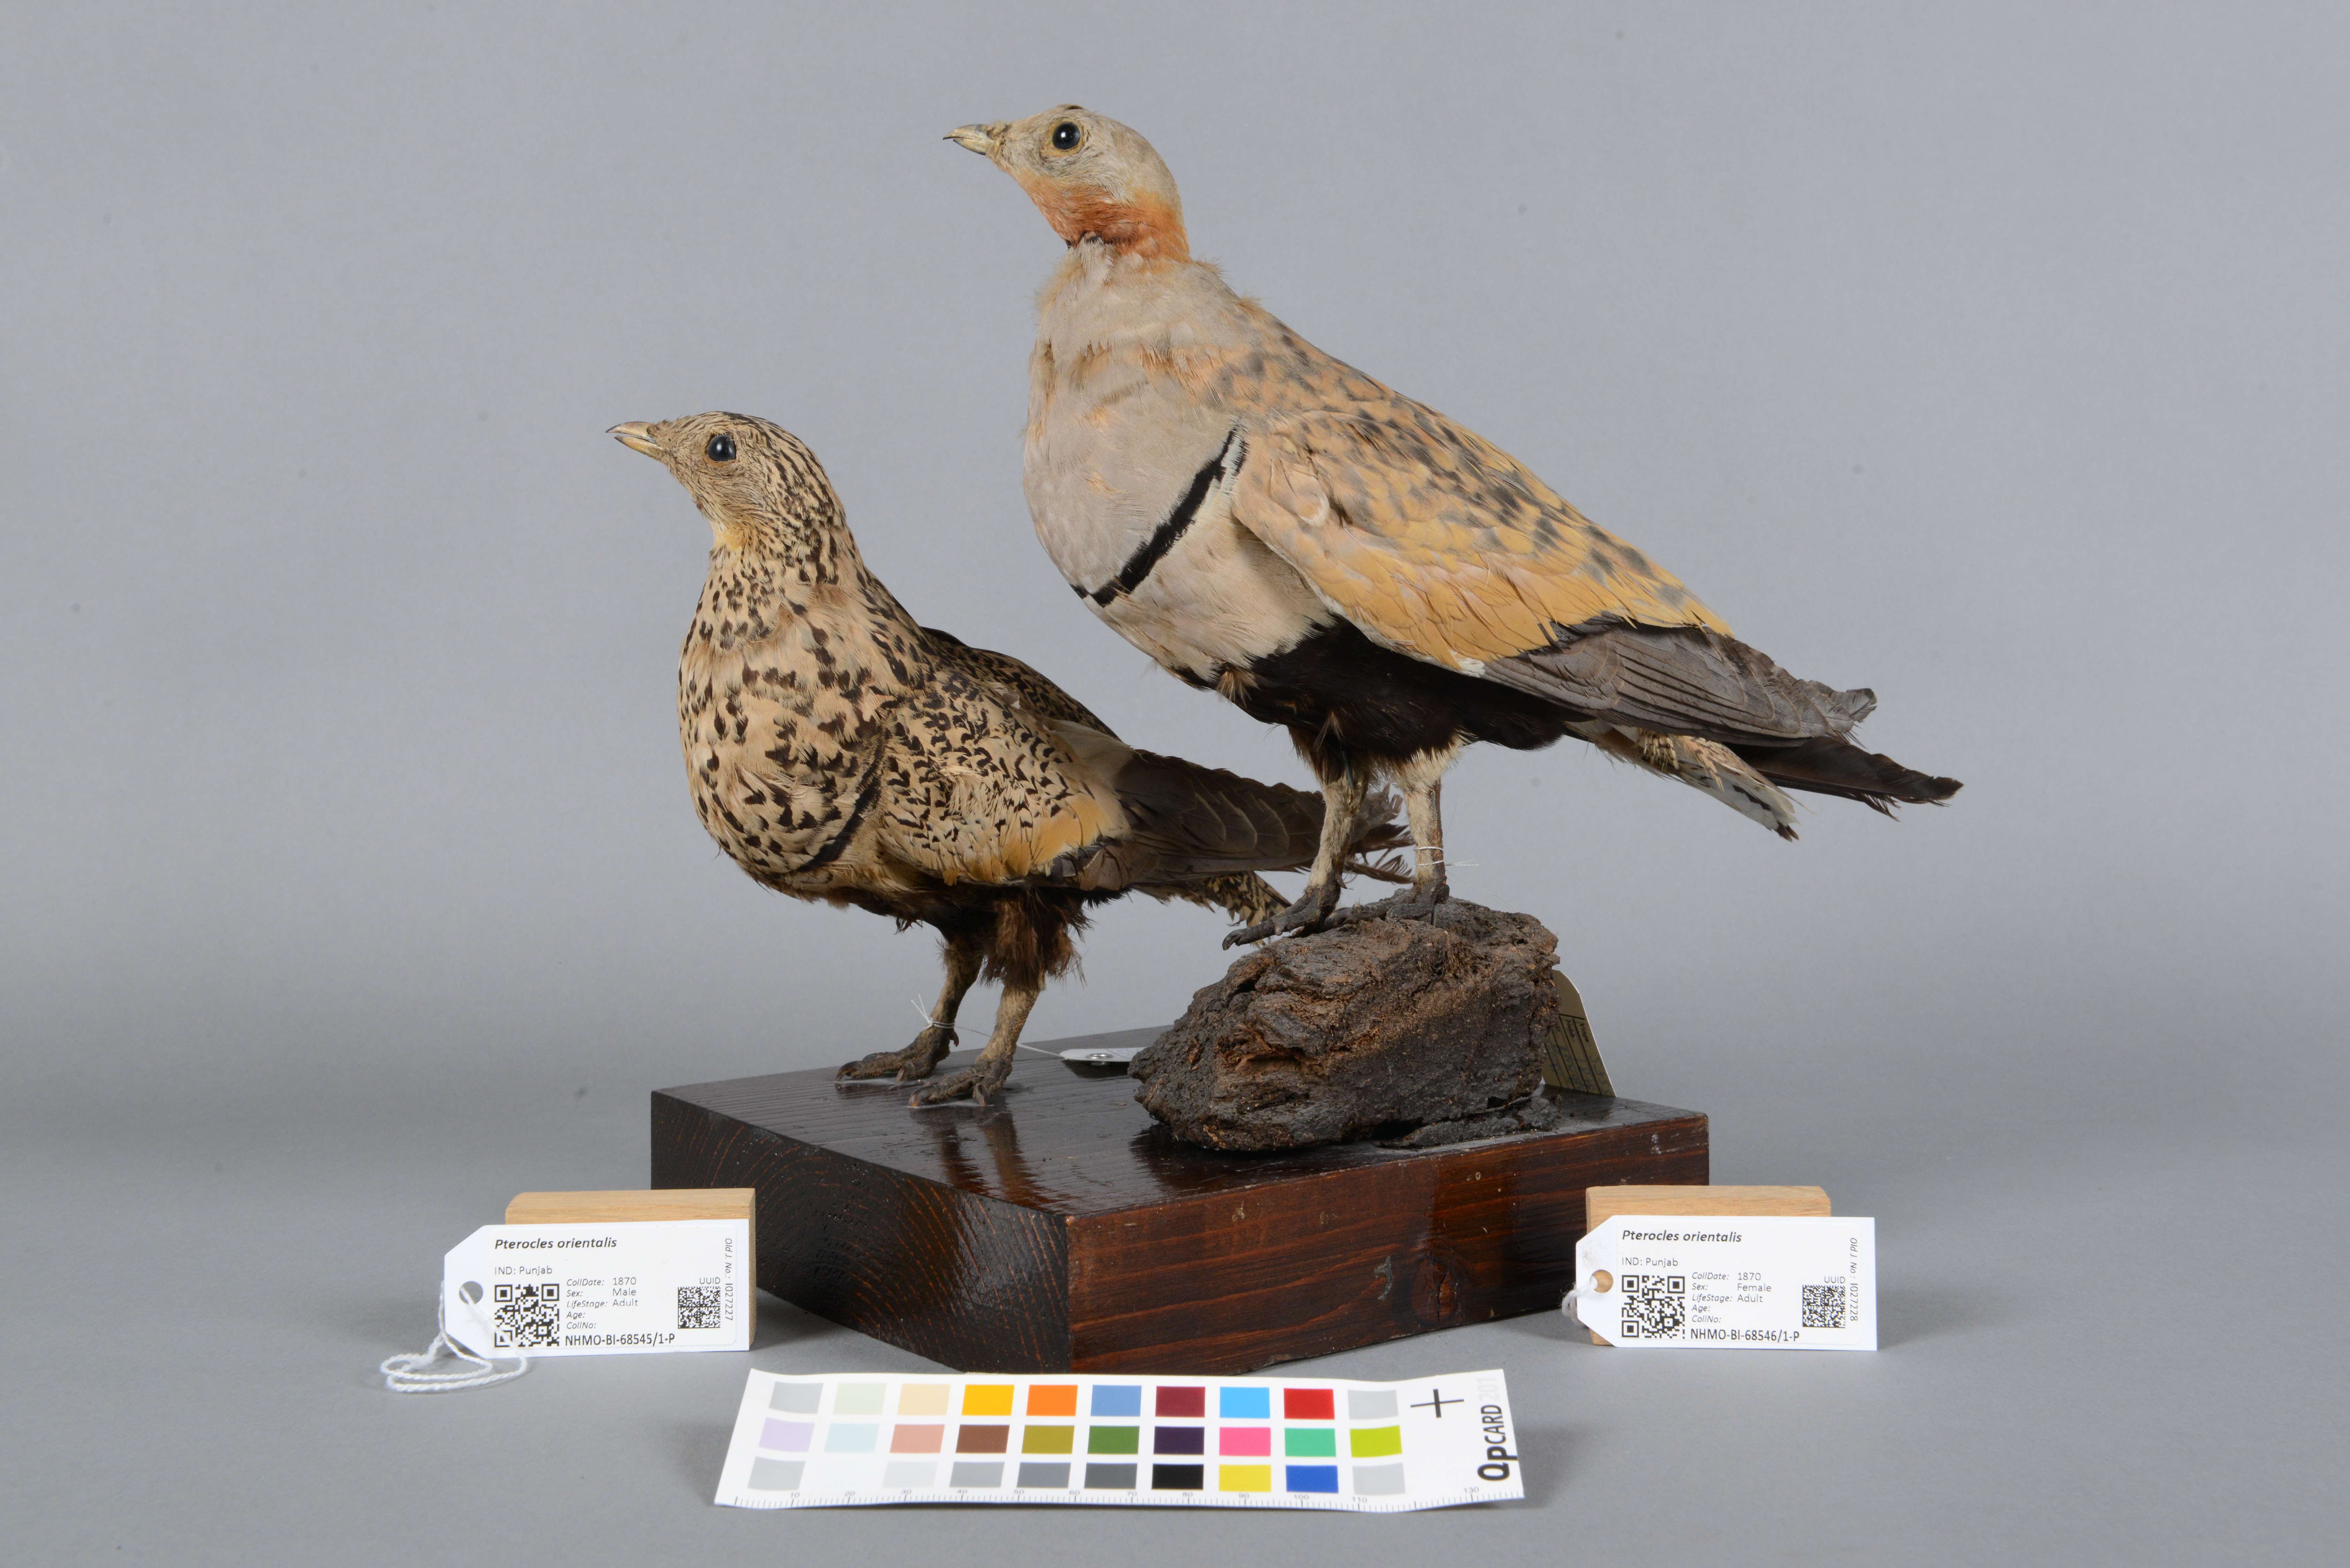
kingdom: Animalia
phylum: Chordata
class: Aves
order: Pteroclidiformes
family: Pteroclididae
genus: Pterocles
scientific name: Pterocles orientalis
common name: Black-bellied sandgrouse
